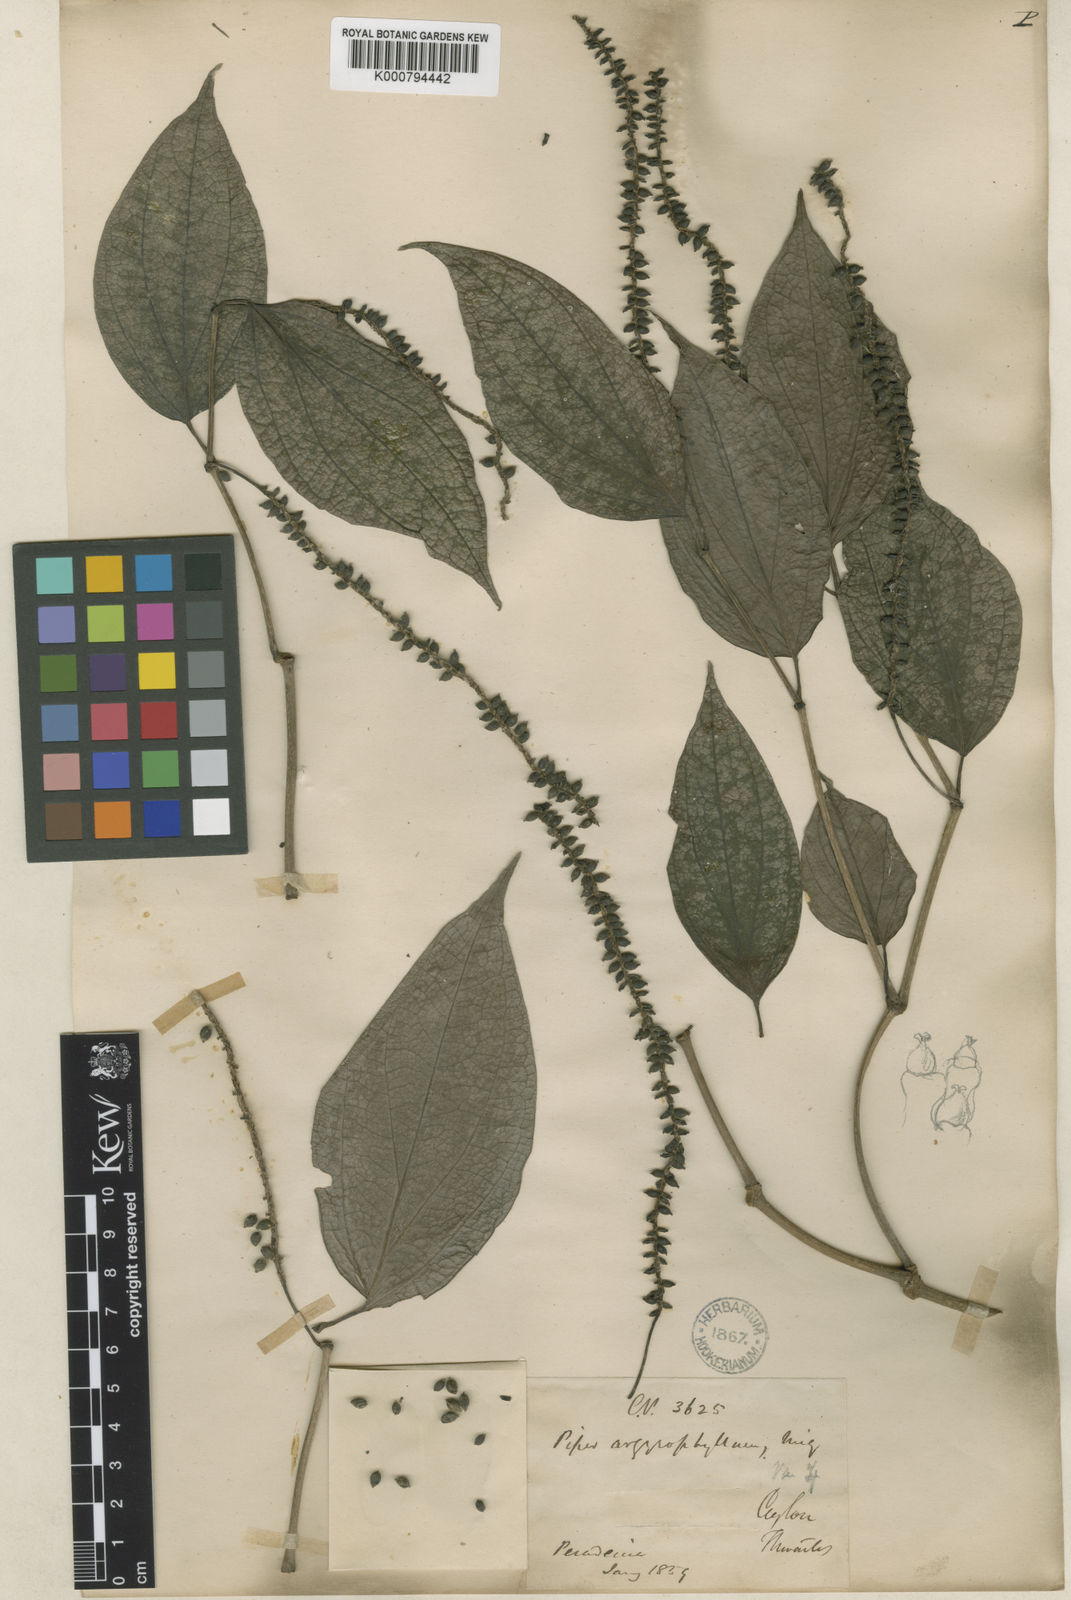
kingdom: Plantae
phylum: Tracheophyta
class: Magnoliopsida
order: Piperales
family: Piperaceae
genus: Piper
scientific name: Piper argyrophyllum
